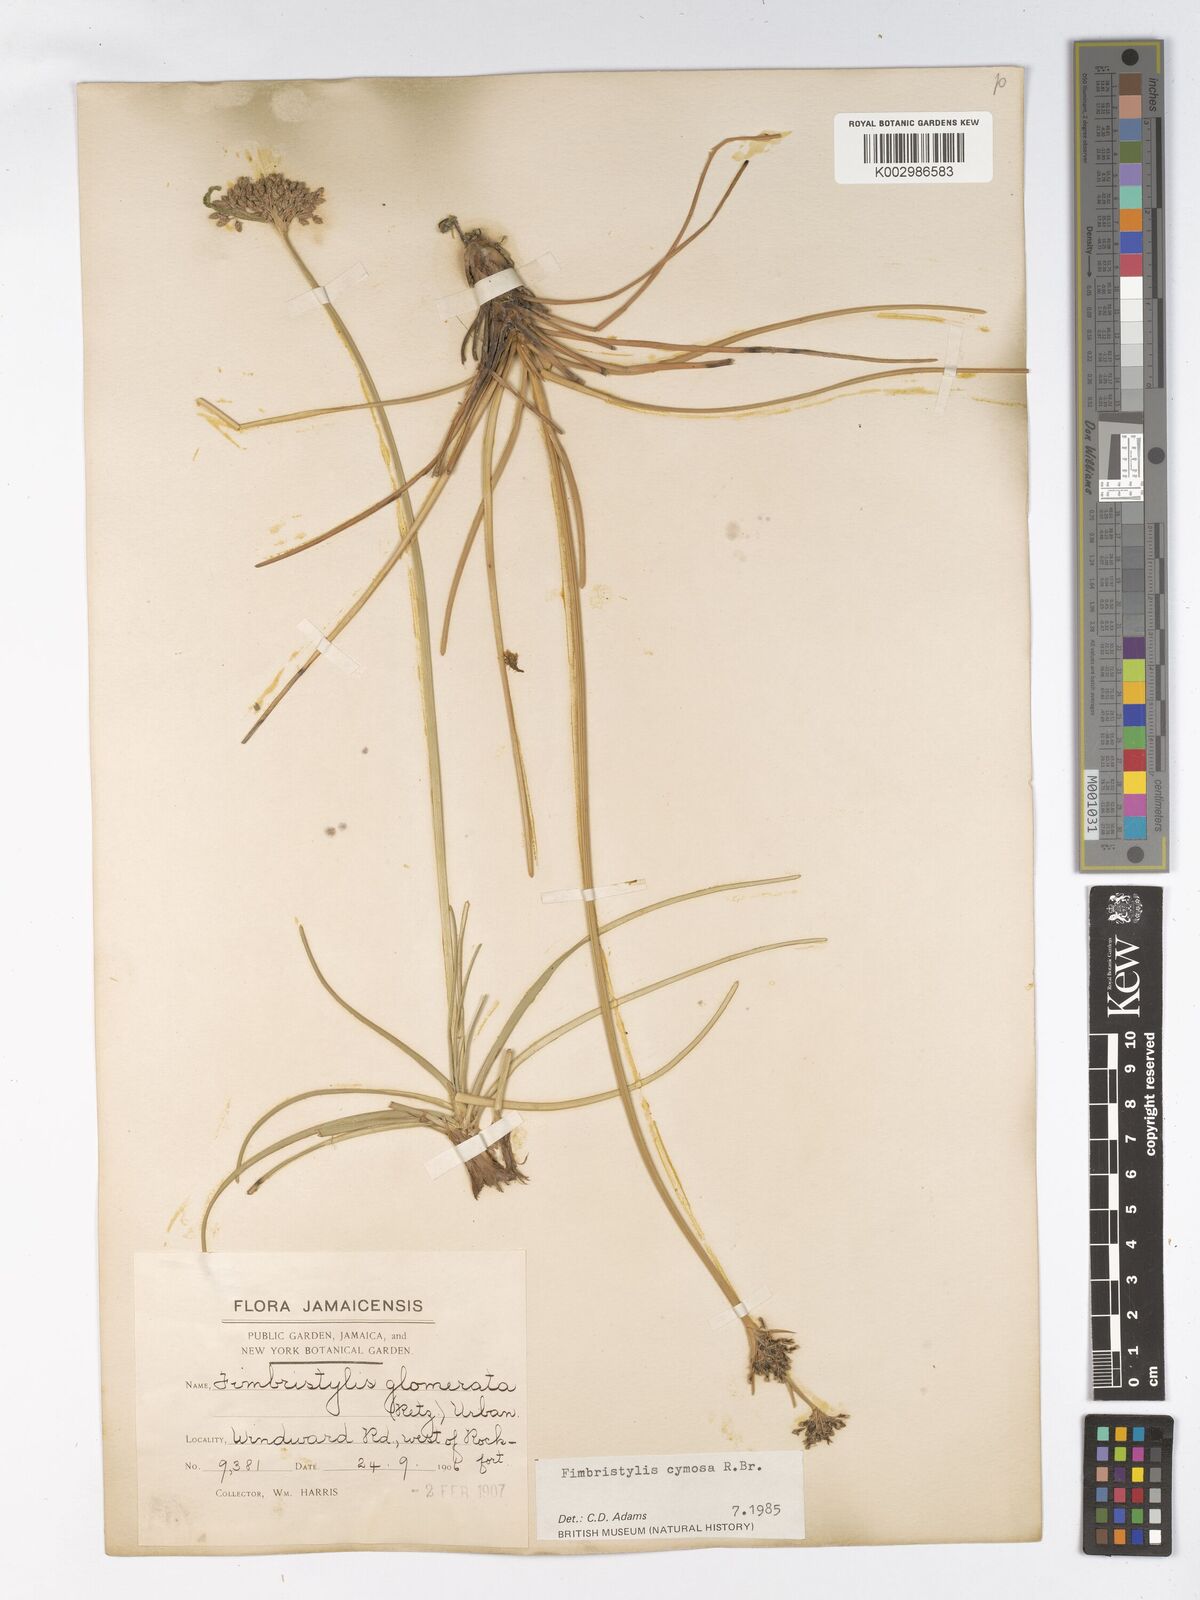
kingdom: Plantae
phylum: Tracheophyta
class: Liliopsida
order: Poales
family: Cyperaceae
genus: Fimbristylis
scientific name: Fimbristylis cymosa
